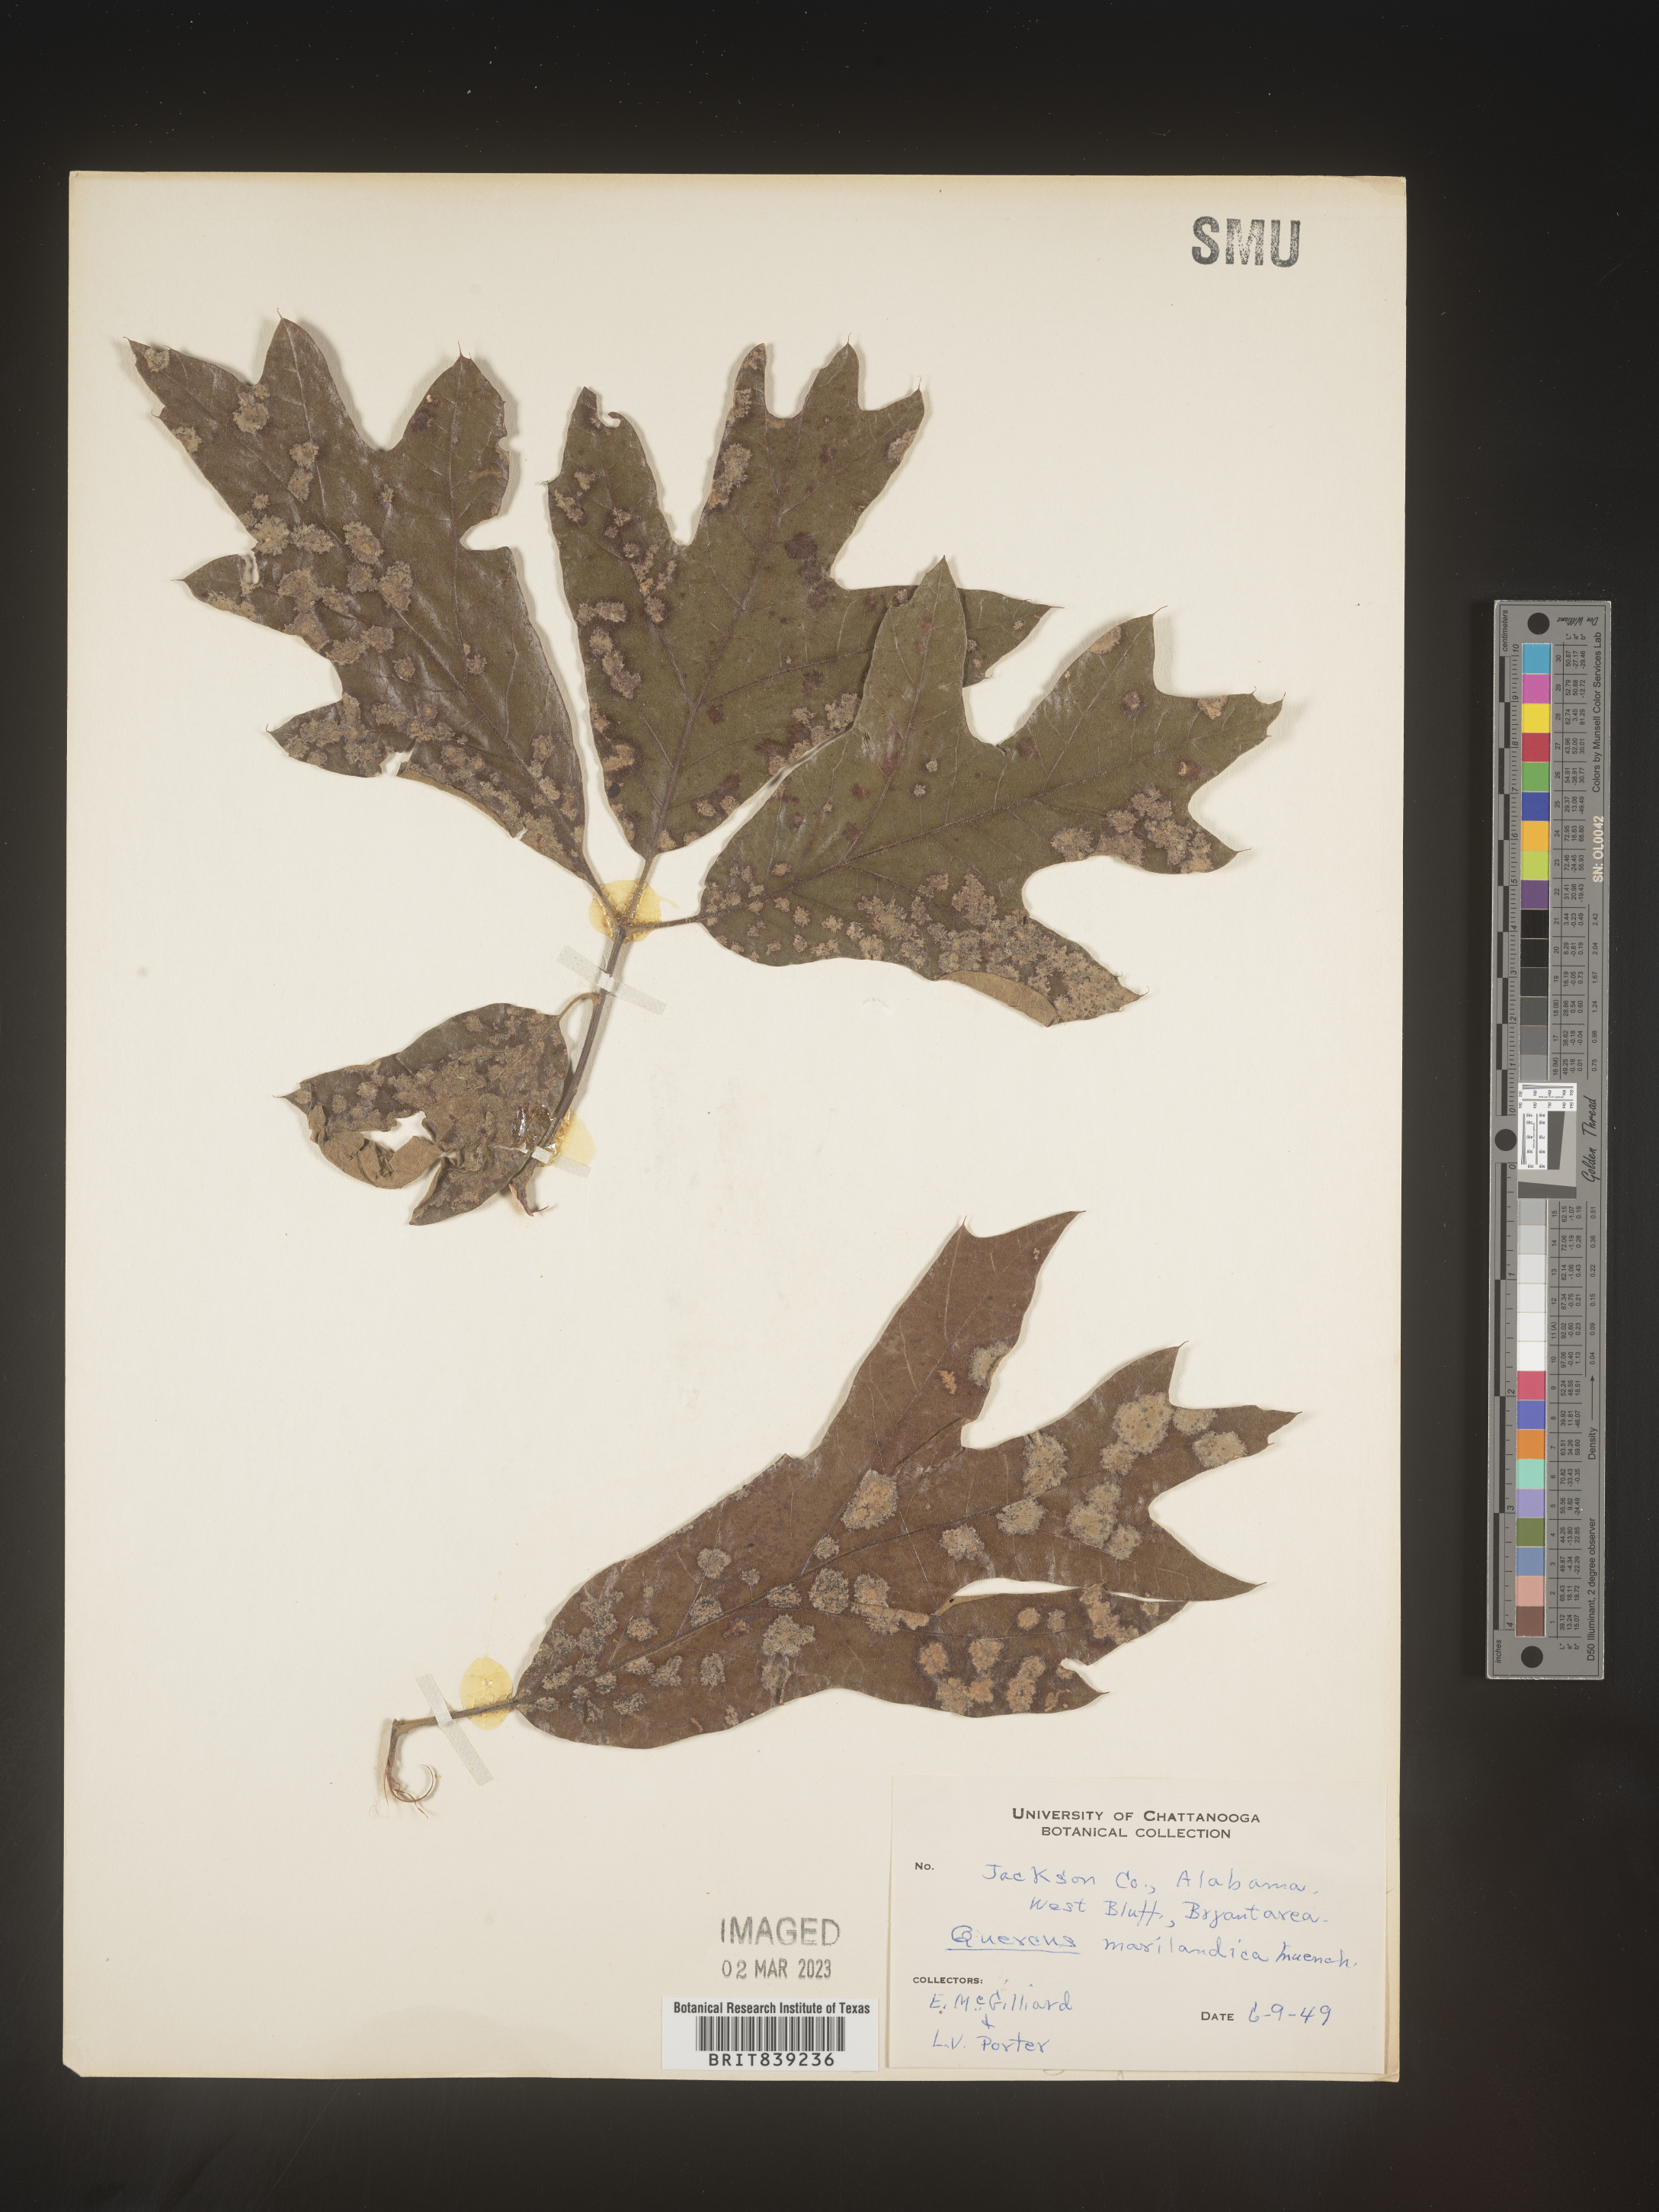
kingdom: Plantae
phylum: Tracheophyta
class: Magnoliopsida
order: Fagales
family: Fagaceae
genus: Quercus
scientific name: Quercus marilandica
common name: Blackjack oak
